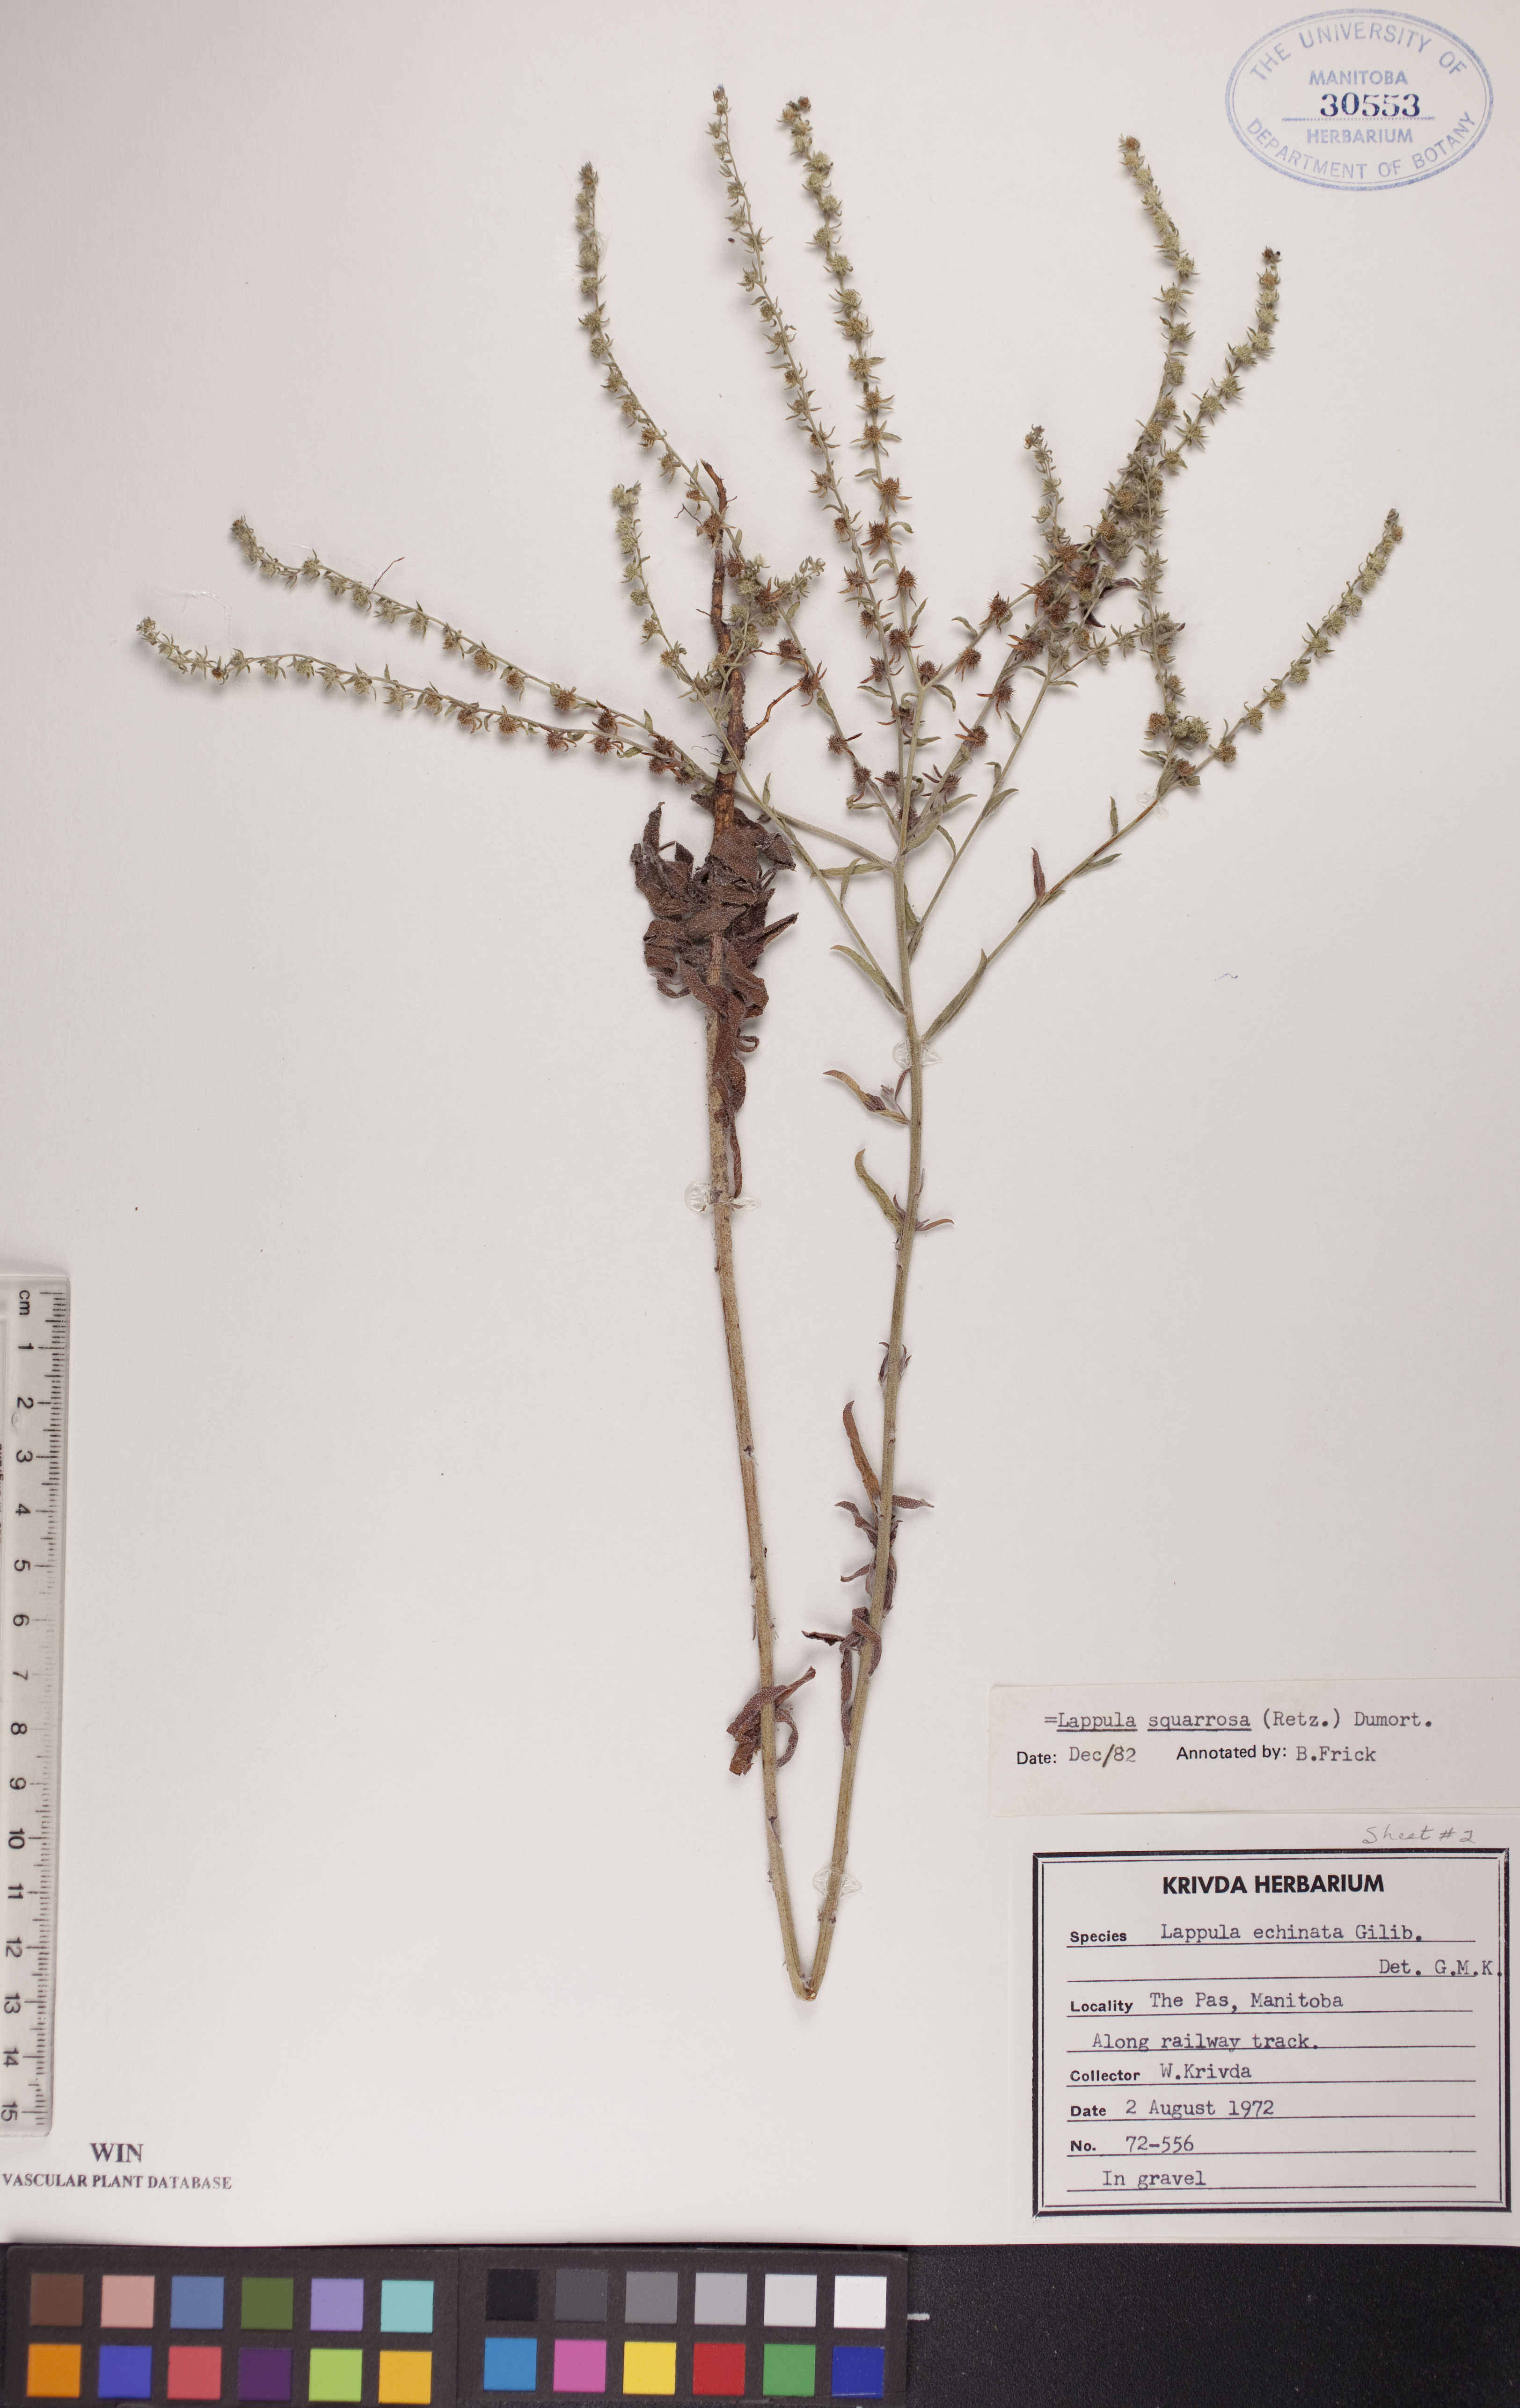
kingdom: Plantae
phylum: Tracheophyta
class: Magnoliopsida
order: Boraginales
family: Boraginaceae
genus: Lappula
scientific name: Lappula squarrosa
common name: European stickseed
